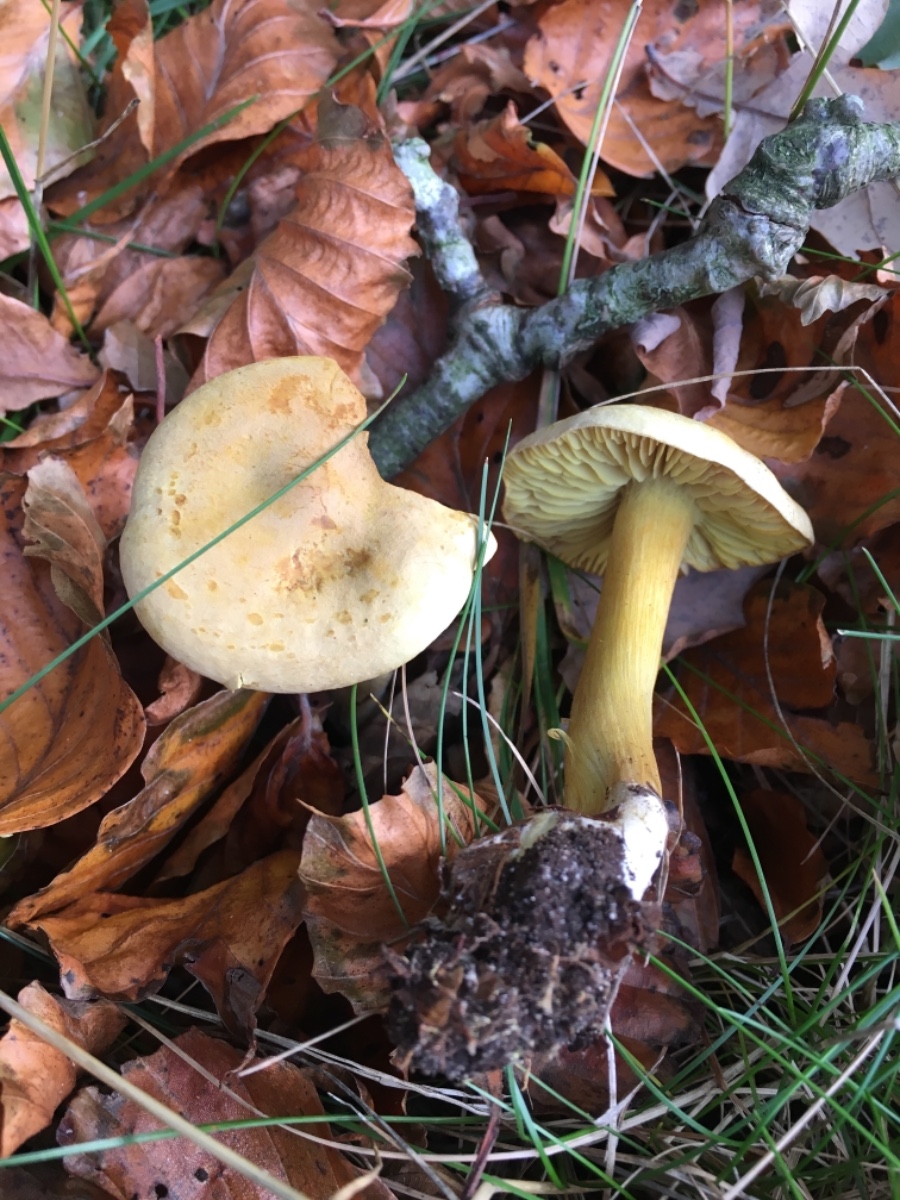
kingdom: Fungi
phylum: Basidiomycota
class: Agaricomycetes
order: Agaricales
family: Tricholomataceae
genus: Tricholoma
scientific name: Tricholoma sulphureum
